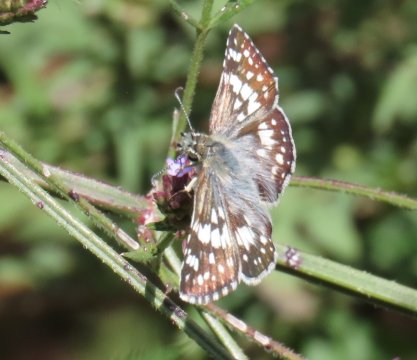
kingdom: Animalia
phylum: Arthropoda
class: Insecta
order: Lepidoptera
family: Hesperiidae
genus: Pyrgus
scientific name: Pyrgus communis
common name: White Checkered-Skipper
